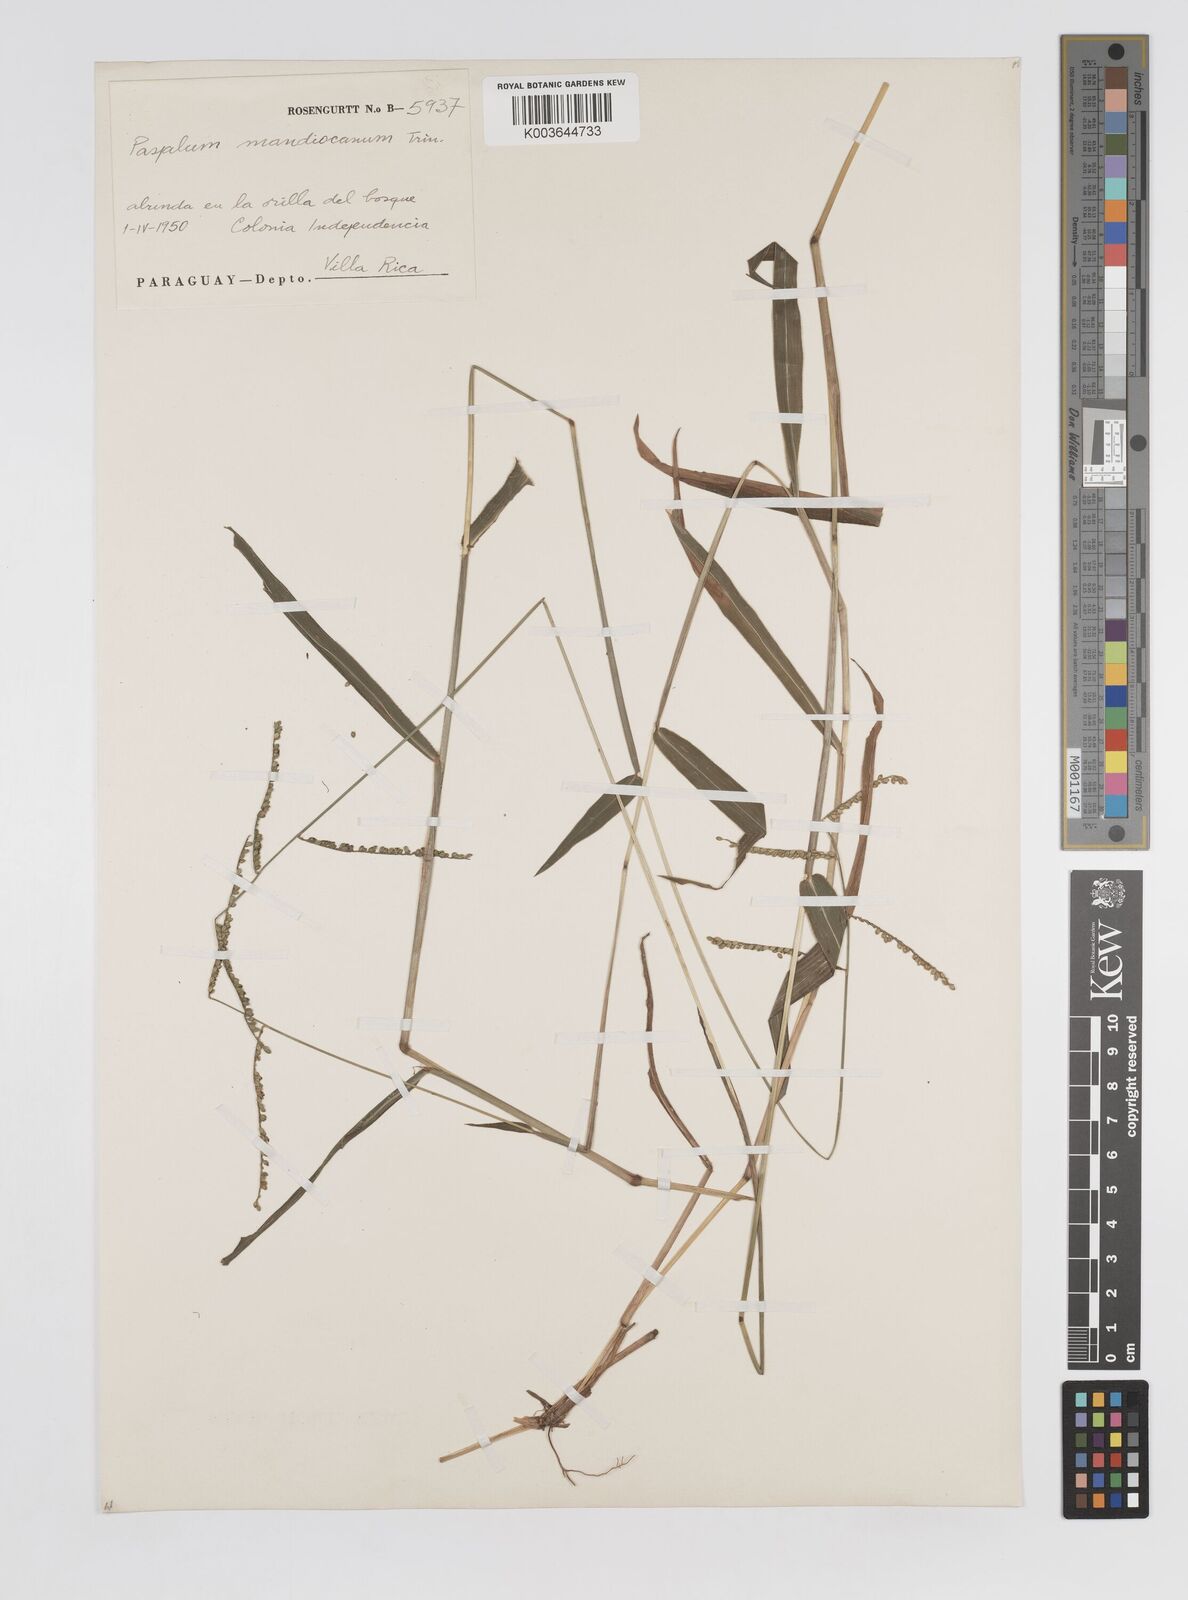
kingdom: Plantae
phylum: Tracheophyta
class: Liliopsida
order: Poales
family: Poaceae
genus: Paspalum
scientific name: Paspalum mandiocanum
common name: Paspalum
